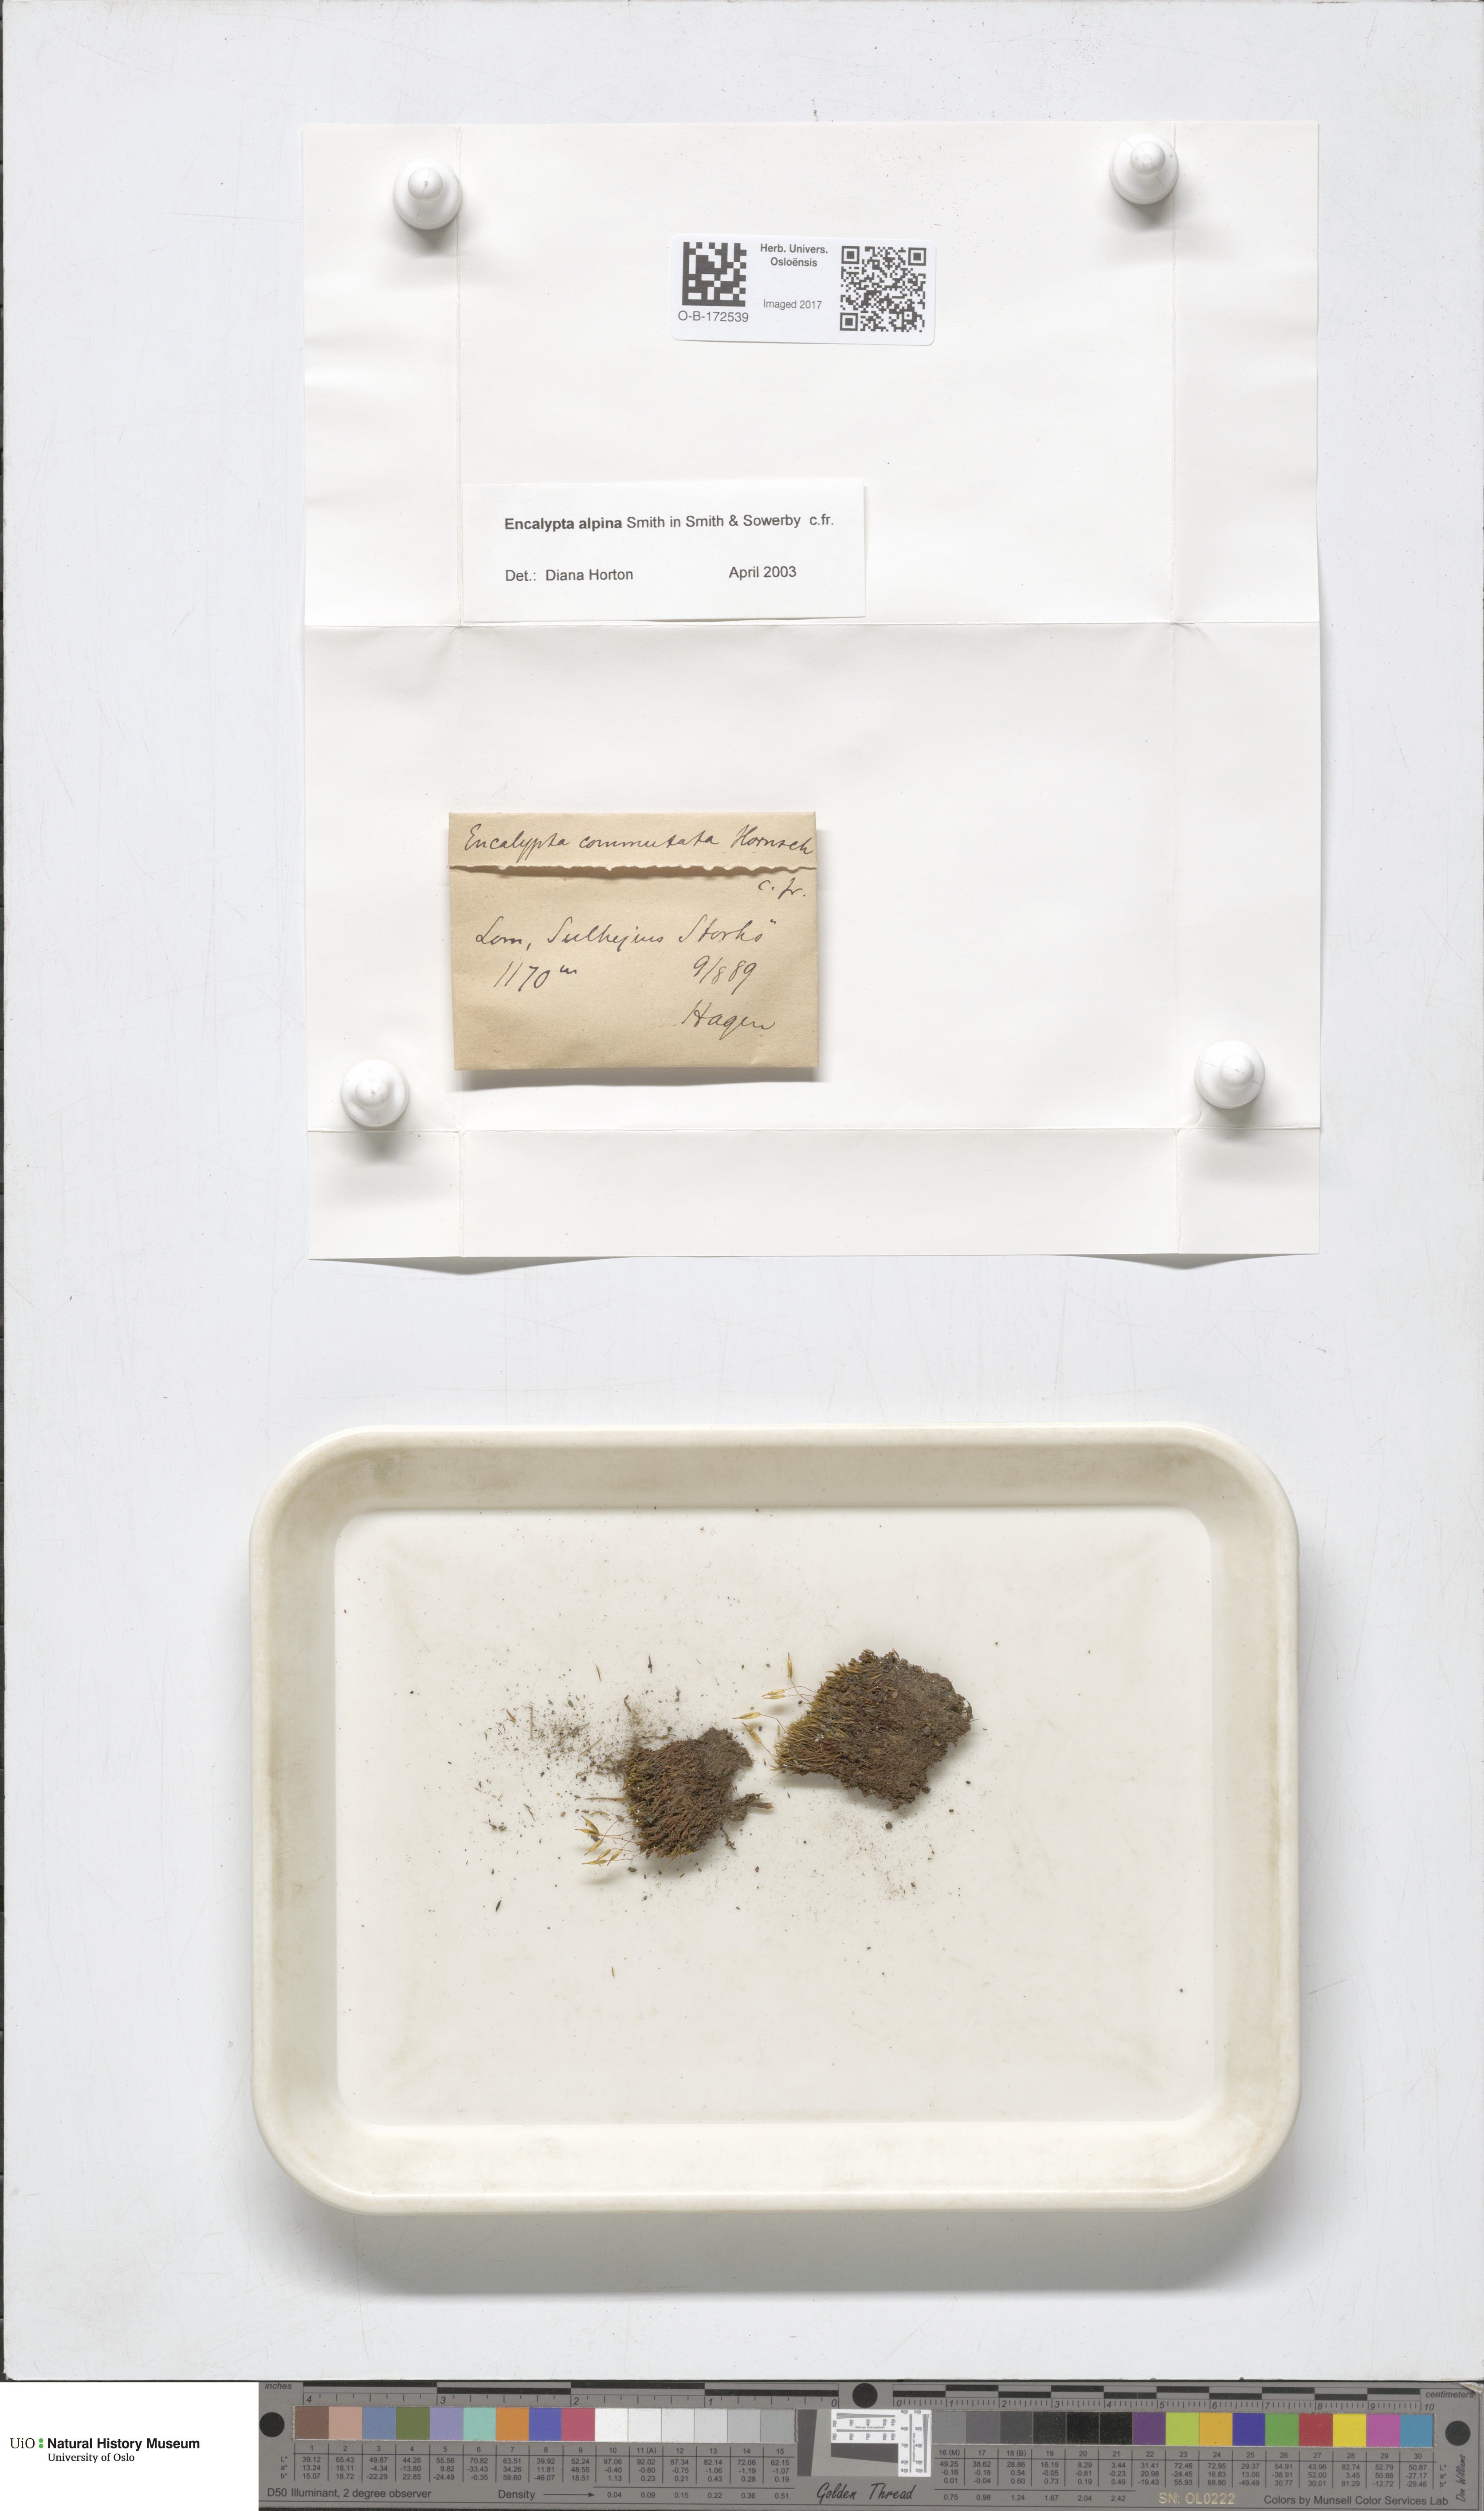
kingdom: Plantae
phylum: Bryophyta
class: Bryopsida
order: Encalyptales
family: Encalyptaceae
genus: Encalypta
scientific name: Encalypta alpina
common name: Alpine extinguisher-moss
